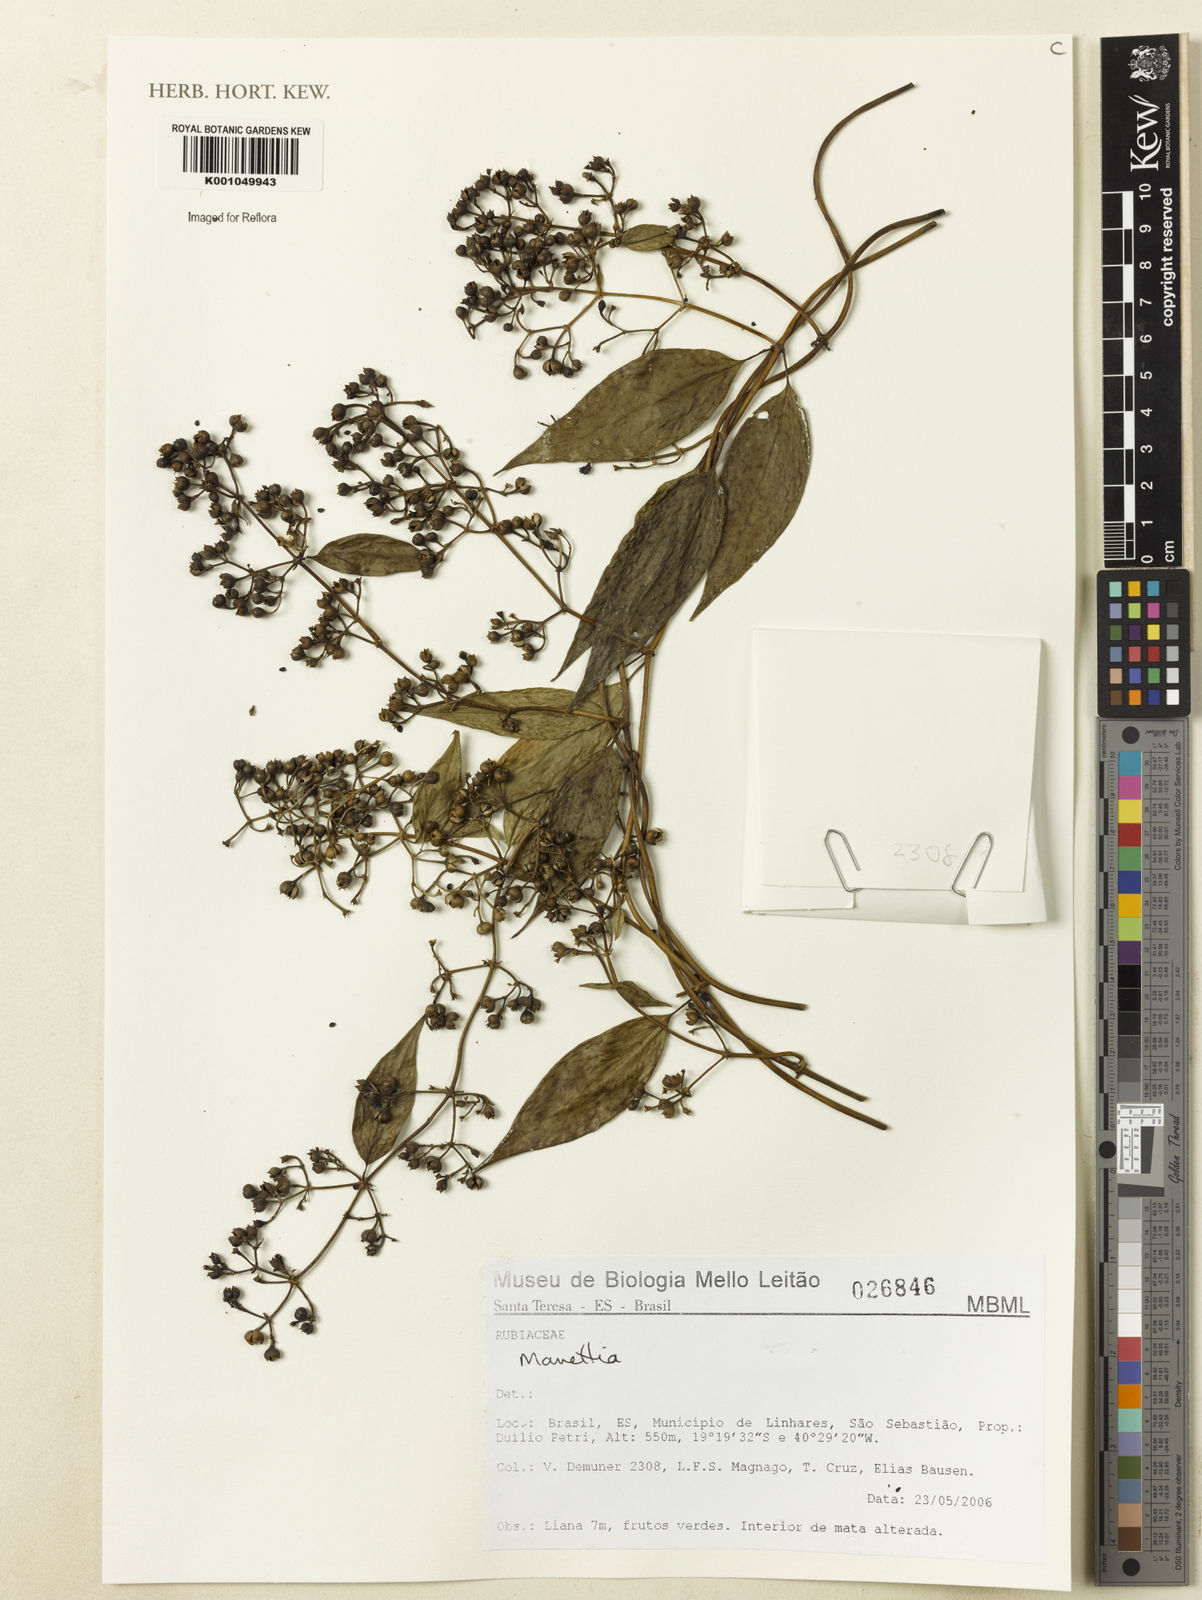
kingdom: Plantae
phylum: Tracheophyta
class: Magnoliopsida
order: Gentianales
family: Rubiaceae
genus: Manettia
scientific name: Manettia
